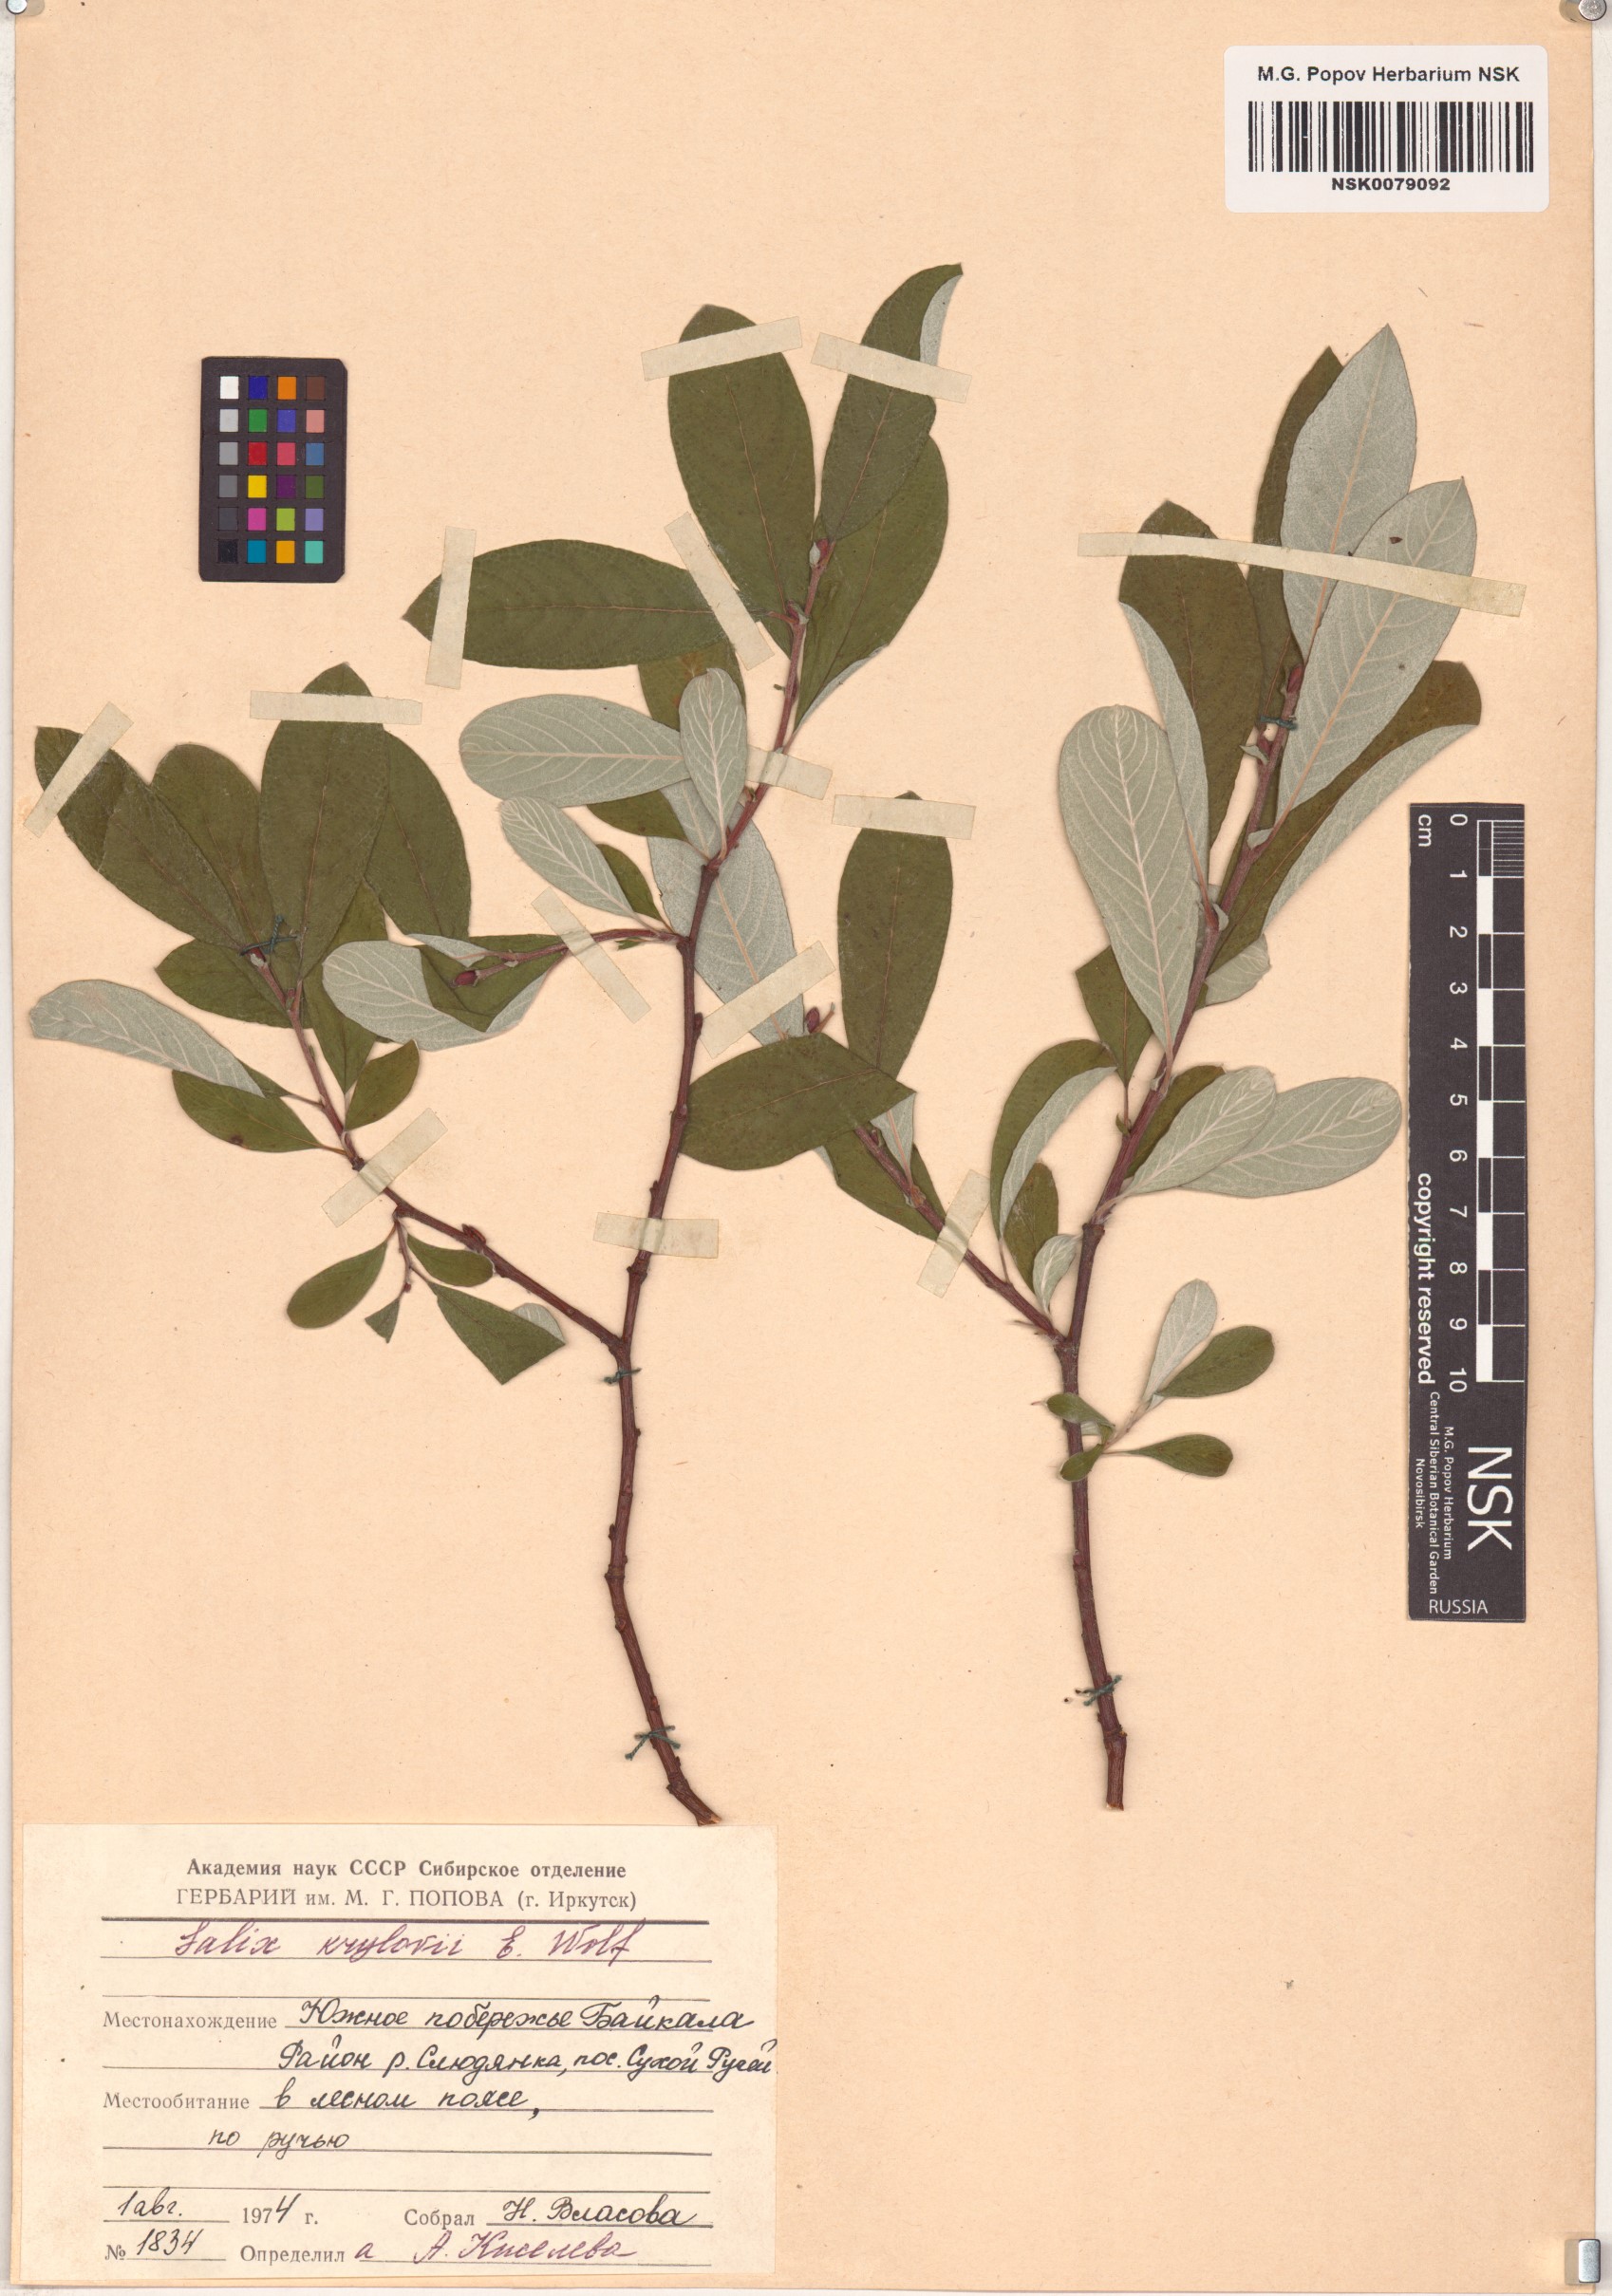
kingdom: Plantae
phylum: Tracheophyta
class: Magnoliopsida
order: Malpighiales
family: Salicaceae
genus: Salix
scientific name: Salix krylovii
